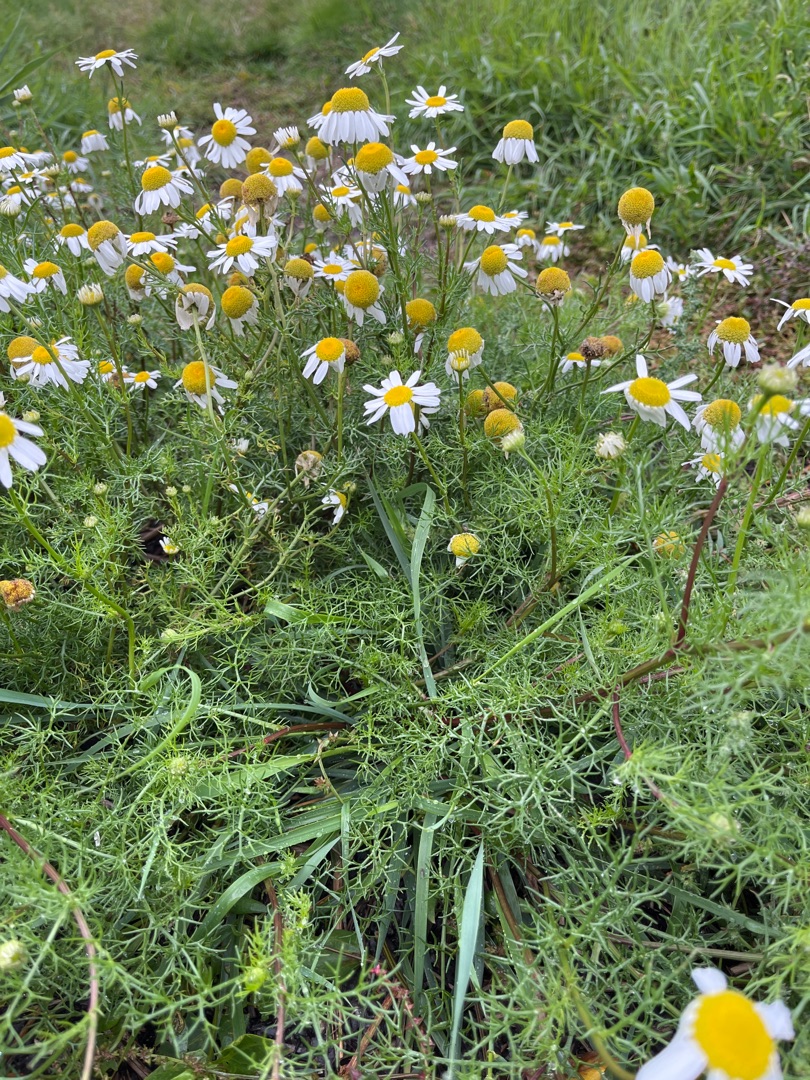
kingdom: Plantae
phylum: Tracheophyta
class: Magnoliopsida
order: Asterales
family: Asteraceae
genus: Tripleurospermum
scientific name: Tripleurospermum maritimum
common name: Strand-kamille
